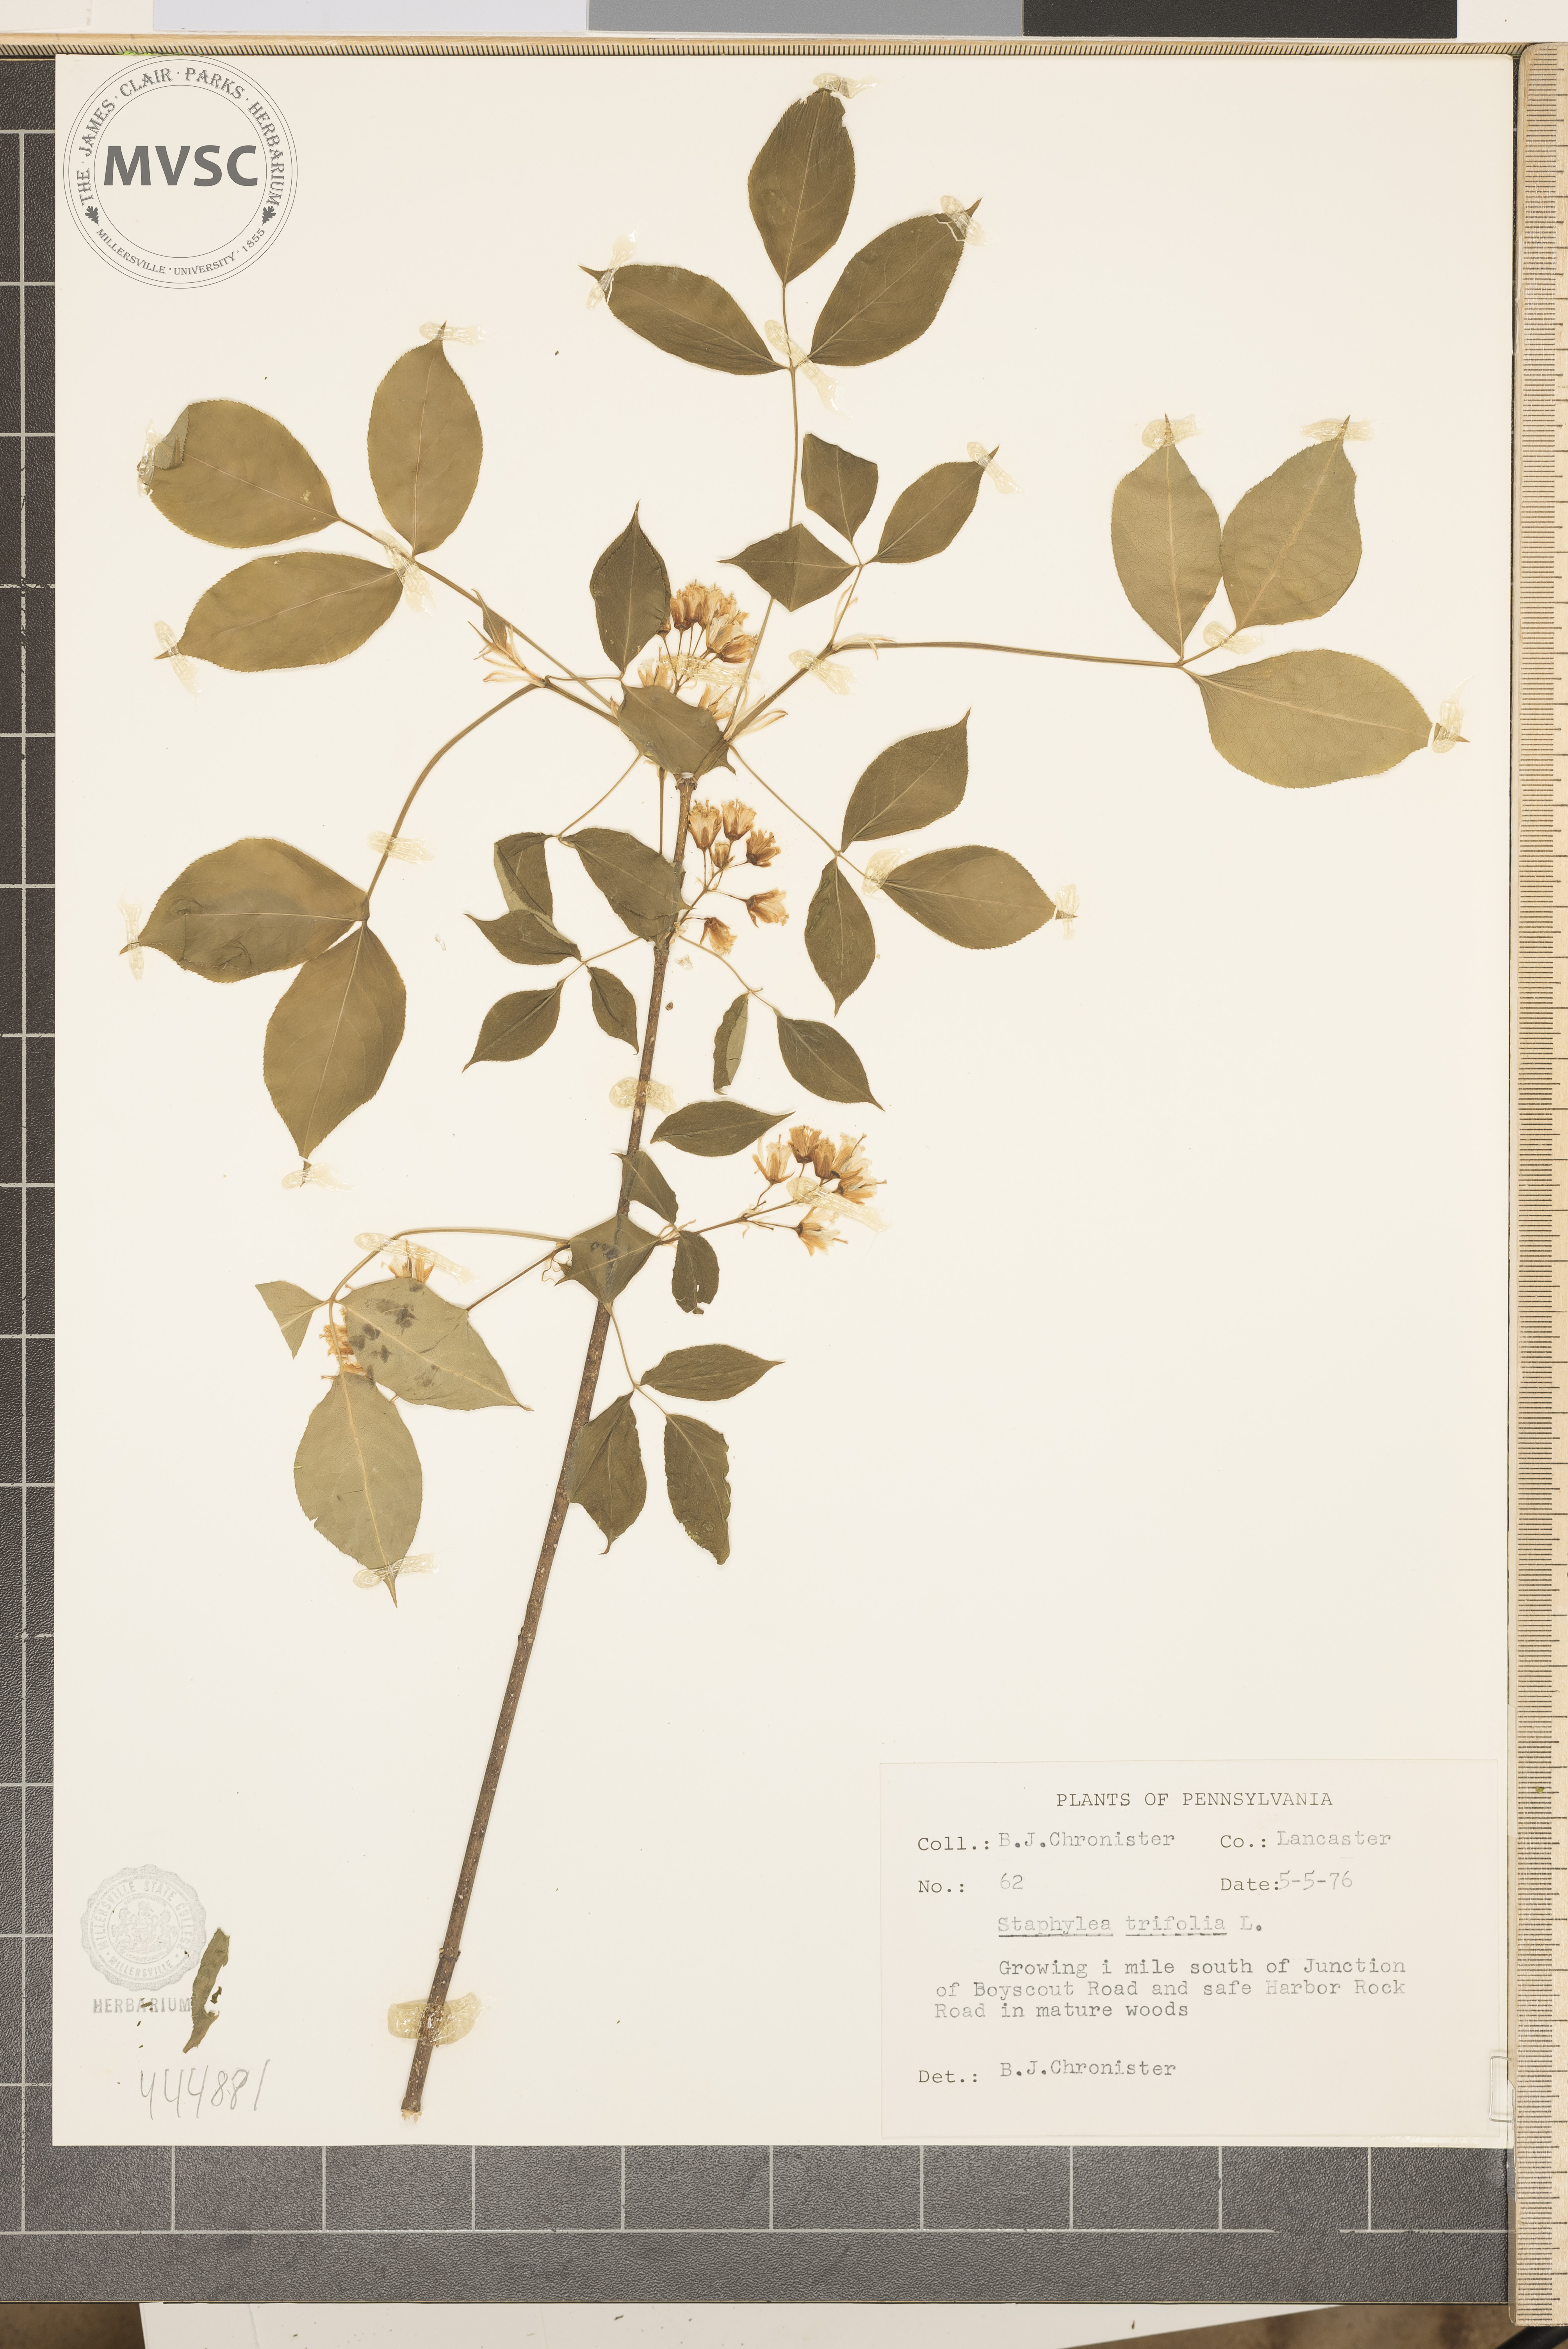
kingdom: Plantae
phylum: Tracheophyta
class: Magnoliopsida
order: Crossosomatales
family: Staphyleaceae
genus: Staphylea
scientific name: Staphylea trifolia
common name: American bladdernut
